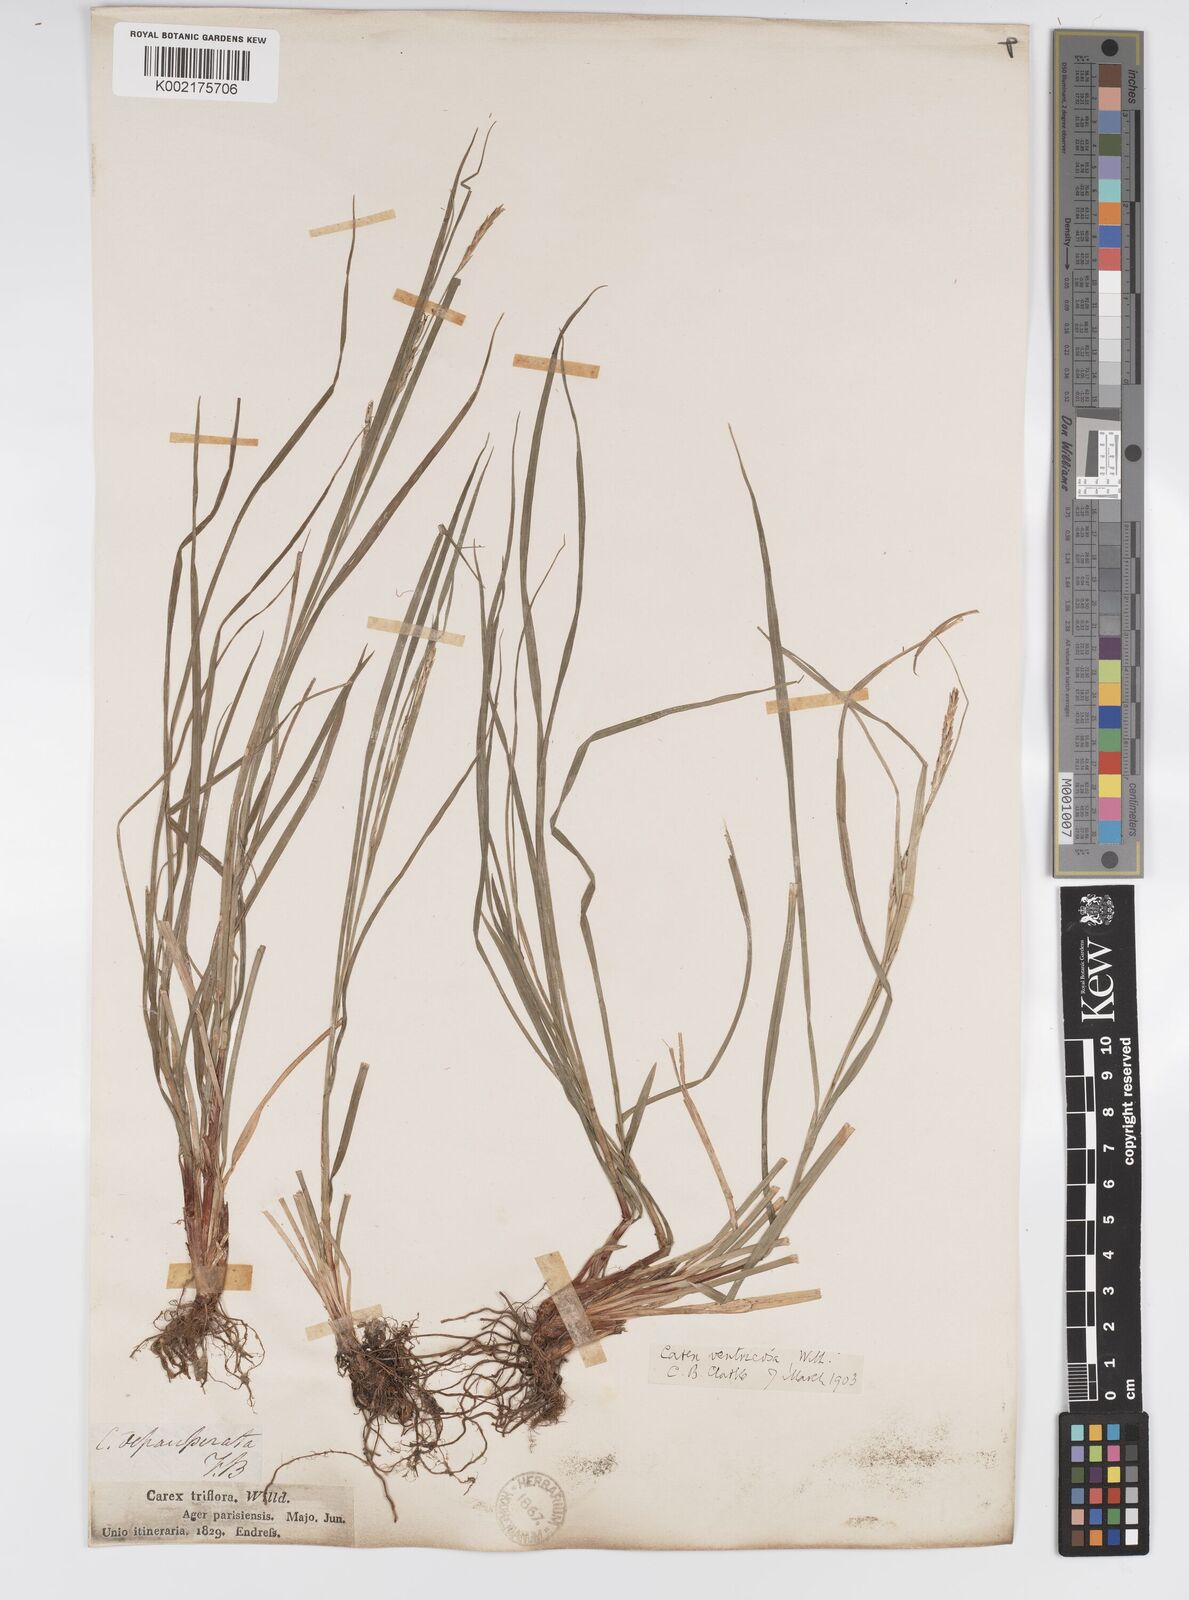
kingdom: Plantae
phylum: Tracheophyta
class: Liliopsida
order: Poales
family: Cyperaceae
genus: Carex
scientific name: Carex
